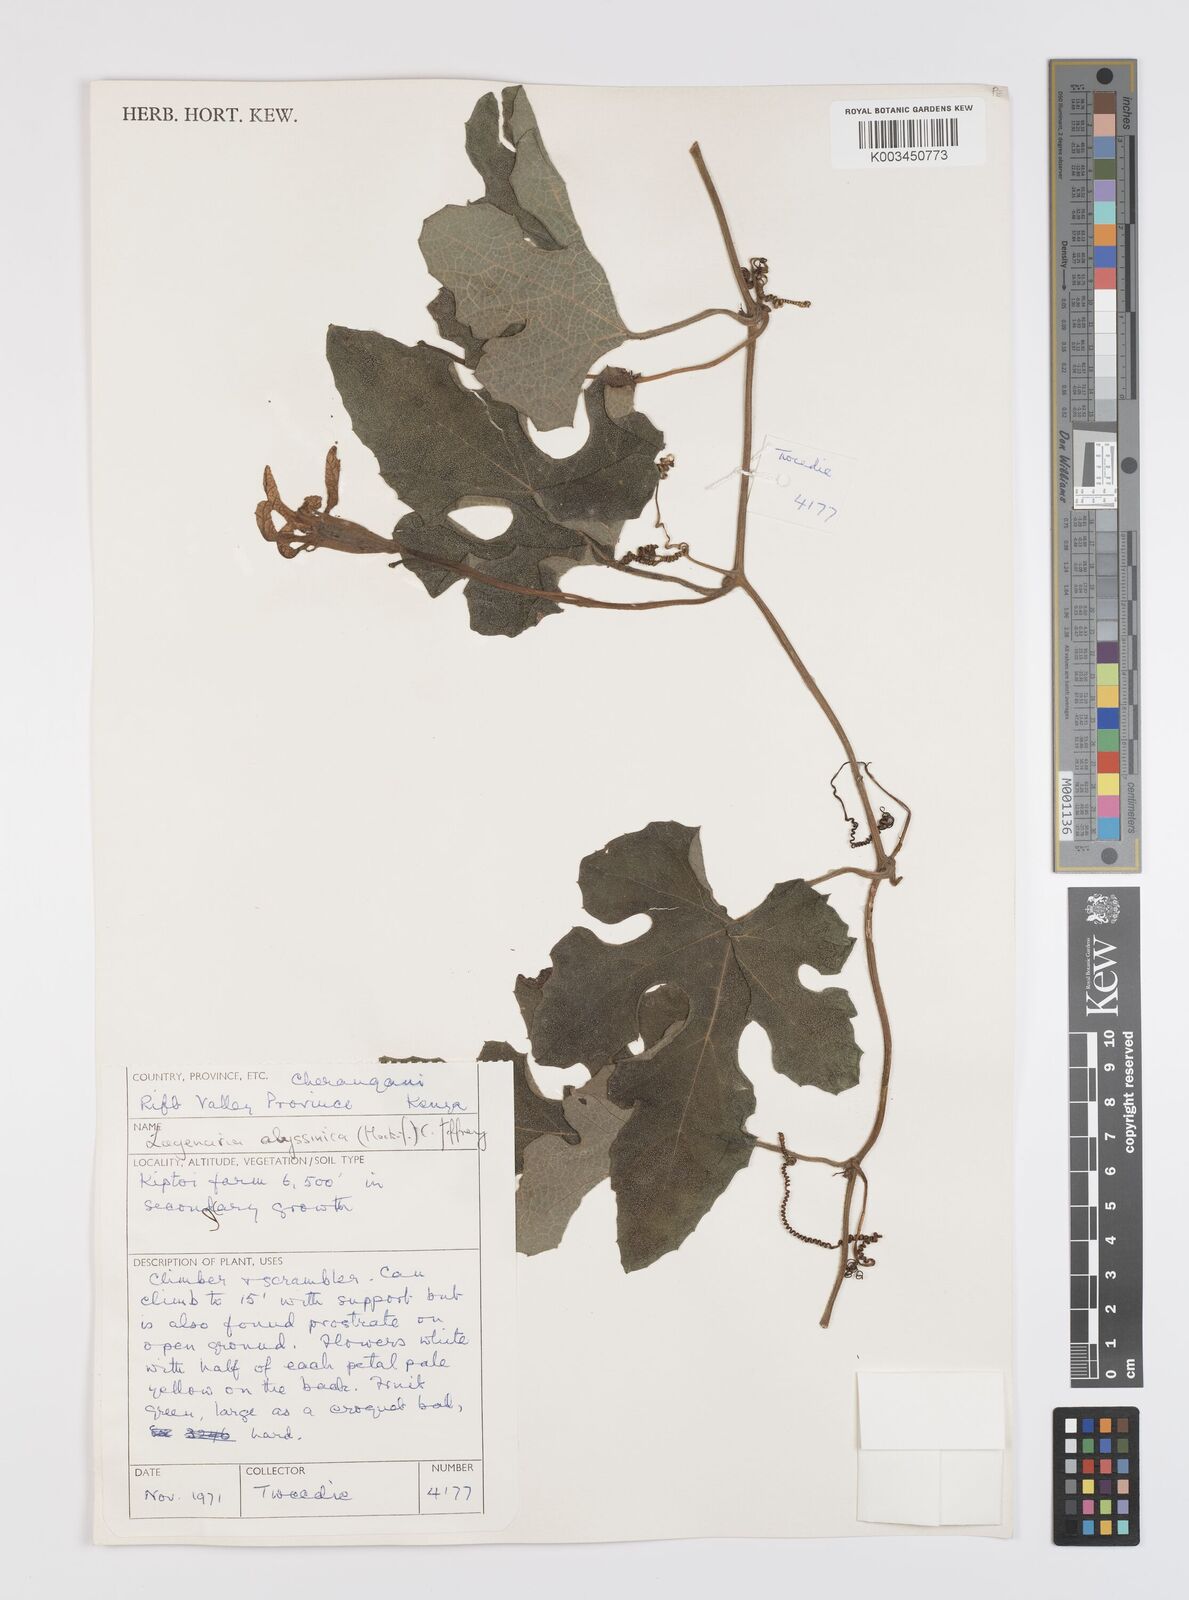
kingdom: Plantae
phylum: Tracheophyta
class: Magnoliopsida
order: Cucurbitales
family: Cucurbitaceae
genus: Lagenaria
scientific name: Lagenaria abyssinica
